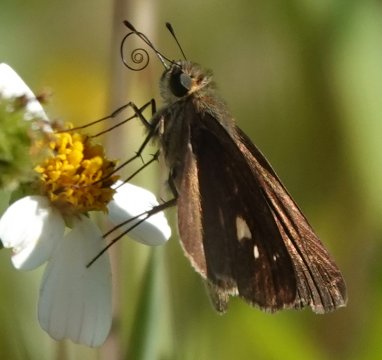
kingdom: Animalia
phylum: Arthropoda
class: Insecta
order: Lepidoptera
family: Hesperiidae
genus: Panoquina
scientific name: Panoquina ocola
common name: Ocola Skipper
